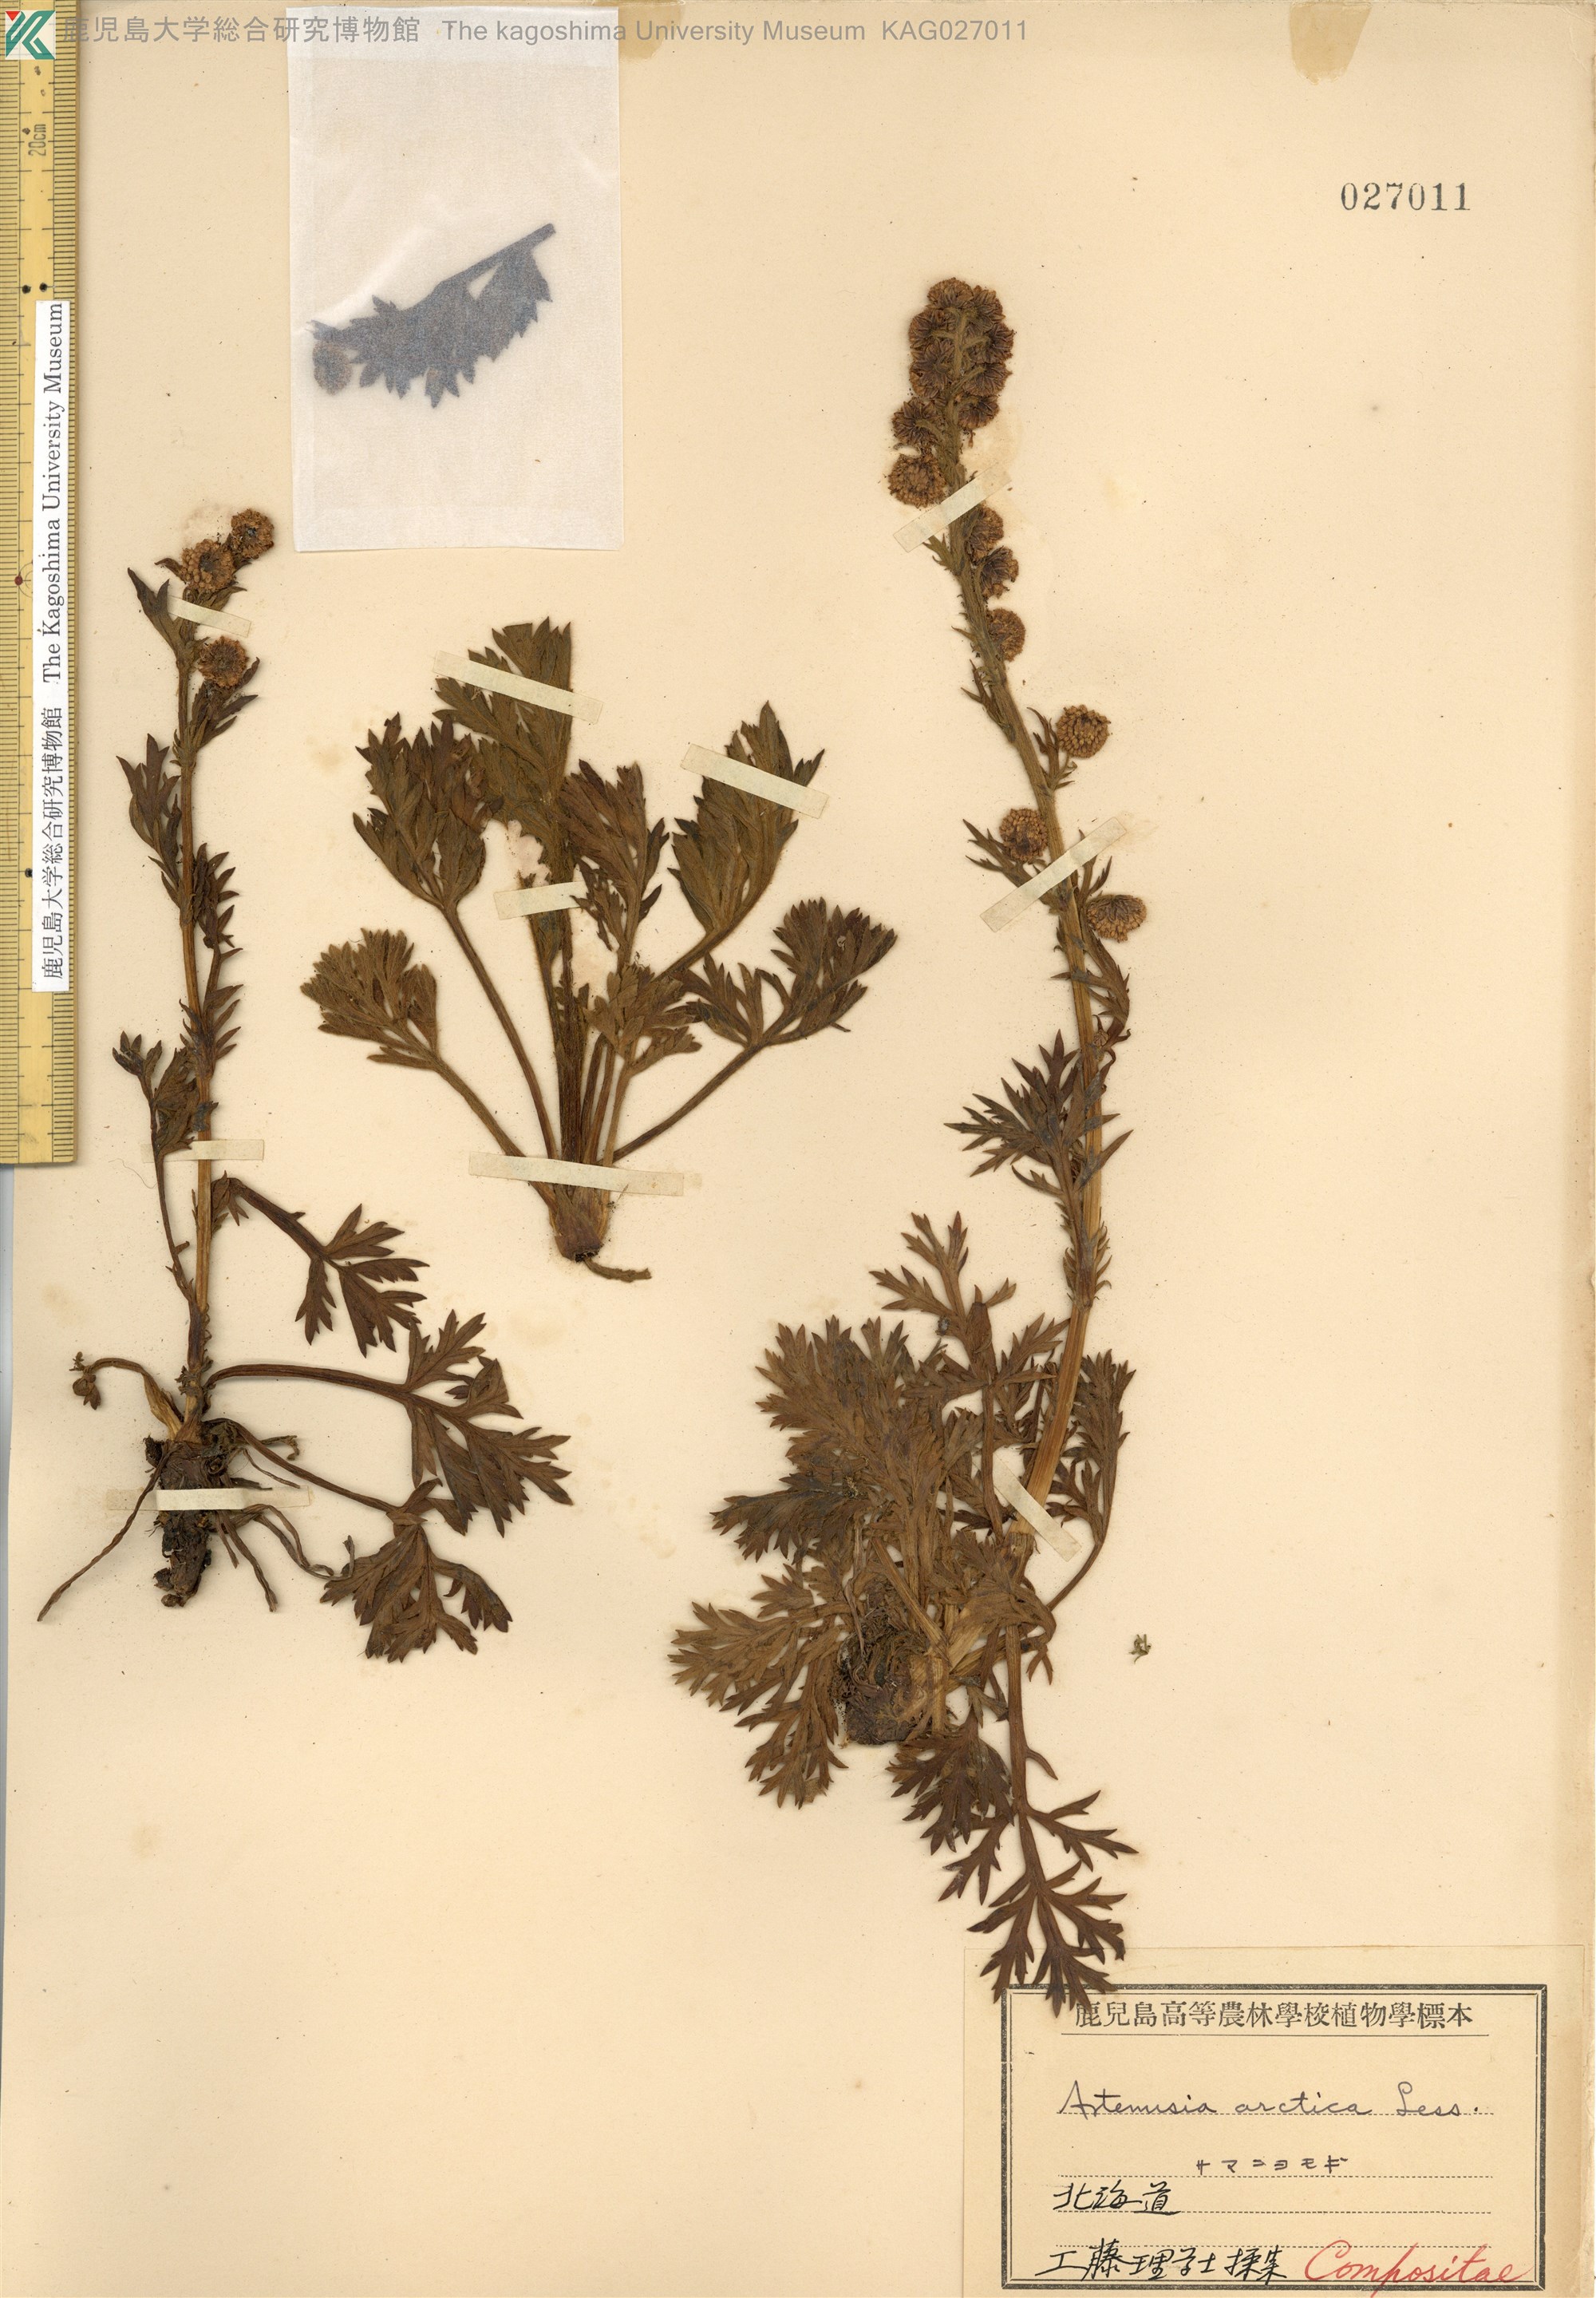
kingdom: Plantae
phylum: Tracheophyta
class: Magnoliopsida
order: Asterales
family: Asteraceae
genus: Artemisia
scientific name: Artemisia arctica
